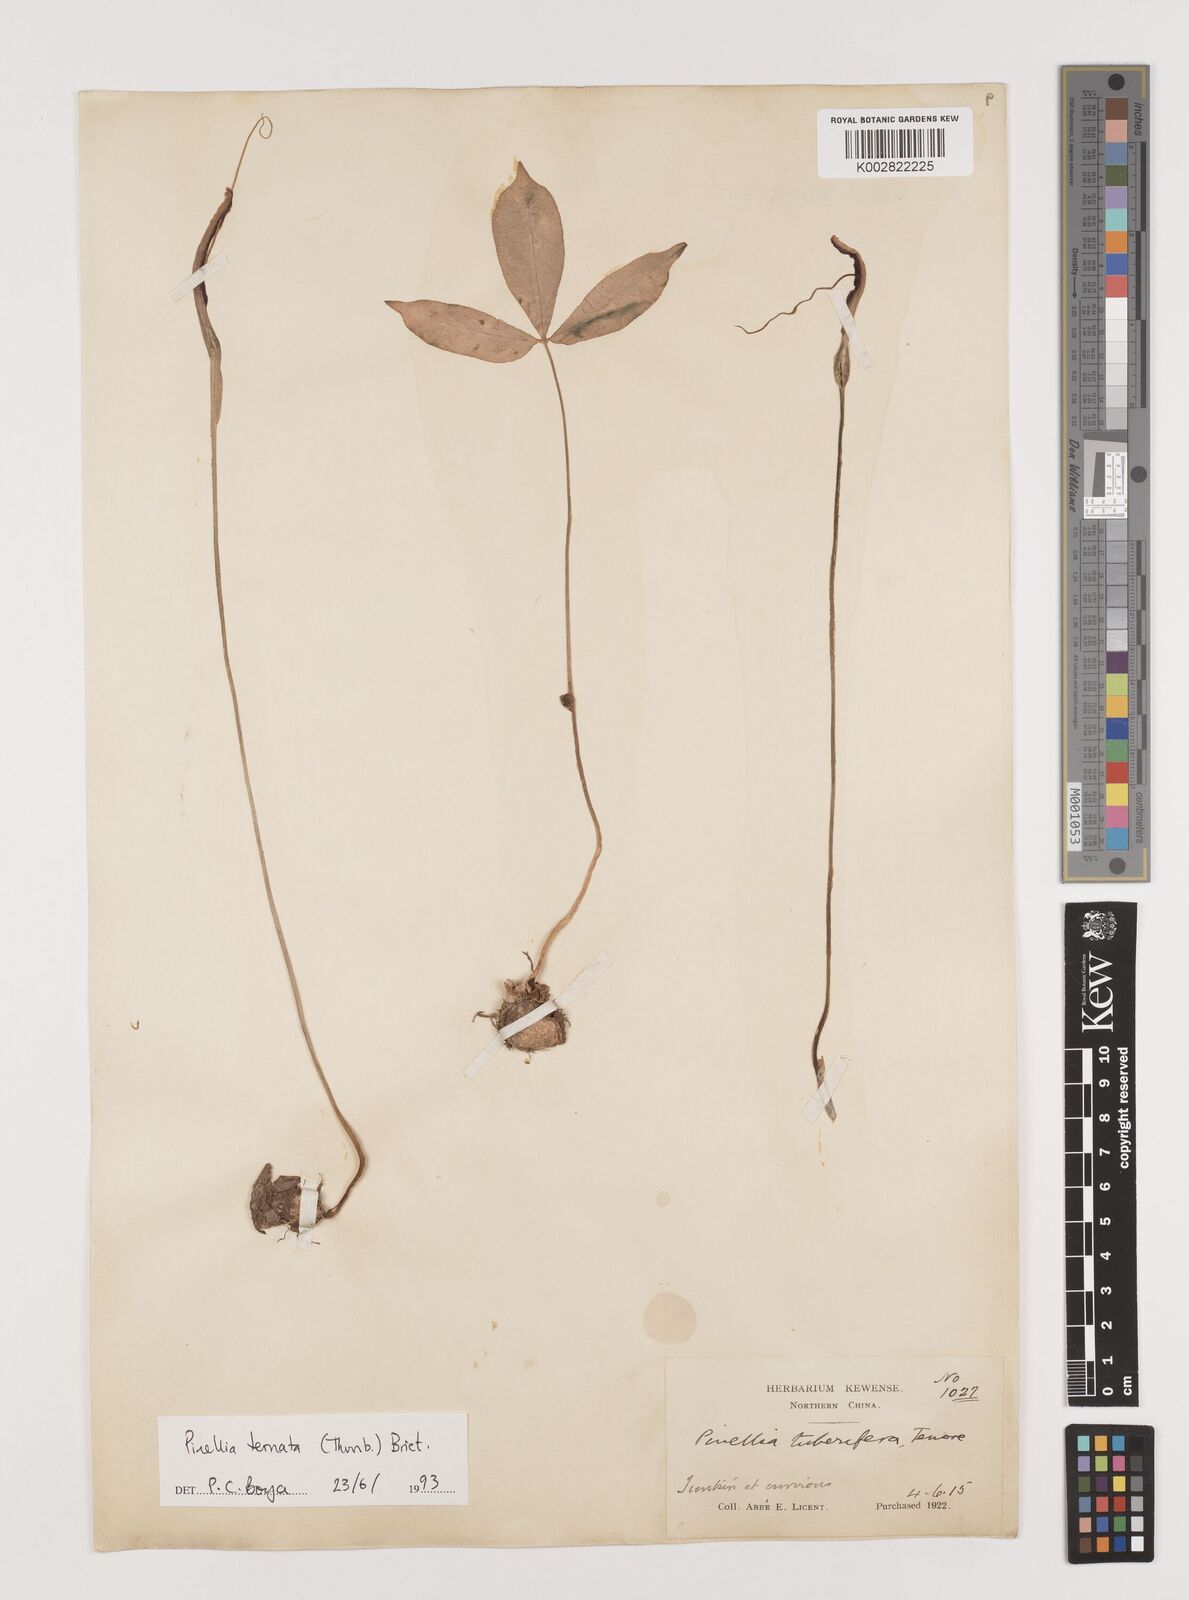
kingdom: Plantae
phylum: Tracheophyta
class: Liliopsida
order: Alismatales
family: Araceae
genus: Pinellia
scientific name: Pinellia ternata
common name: Pinellia
